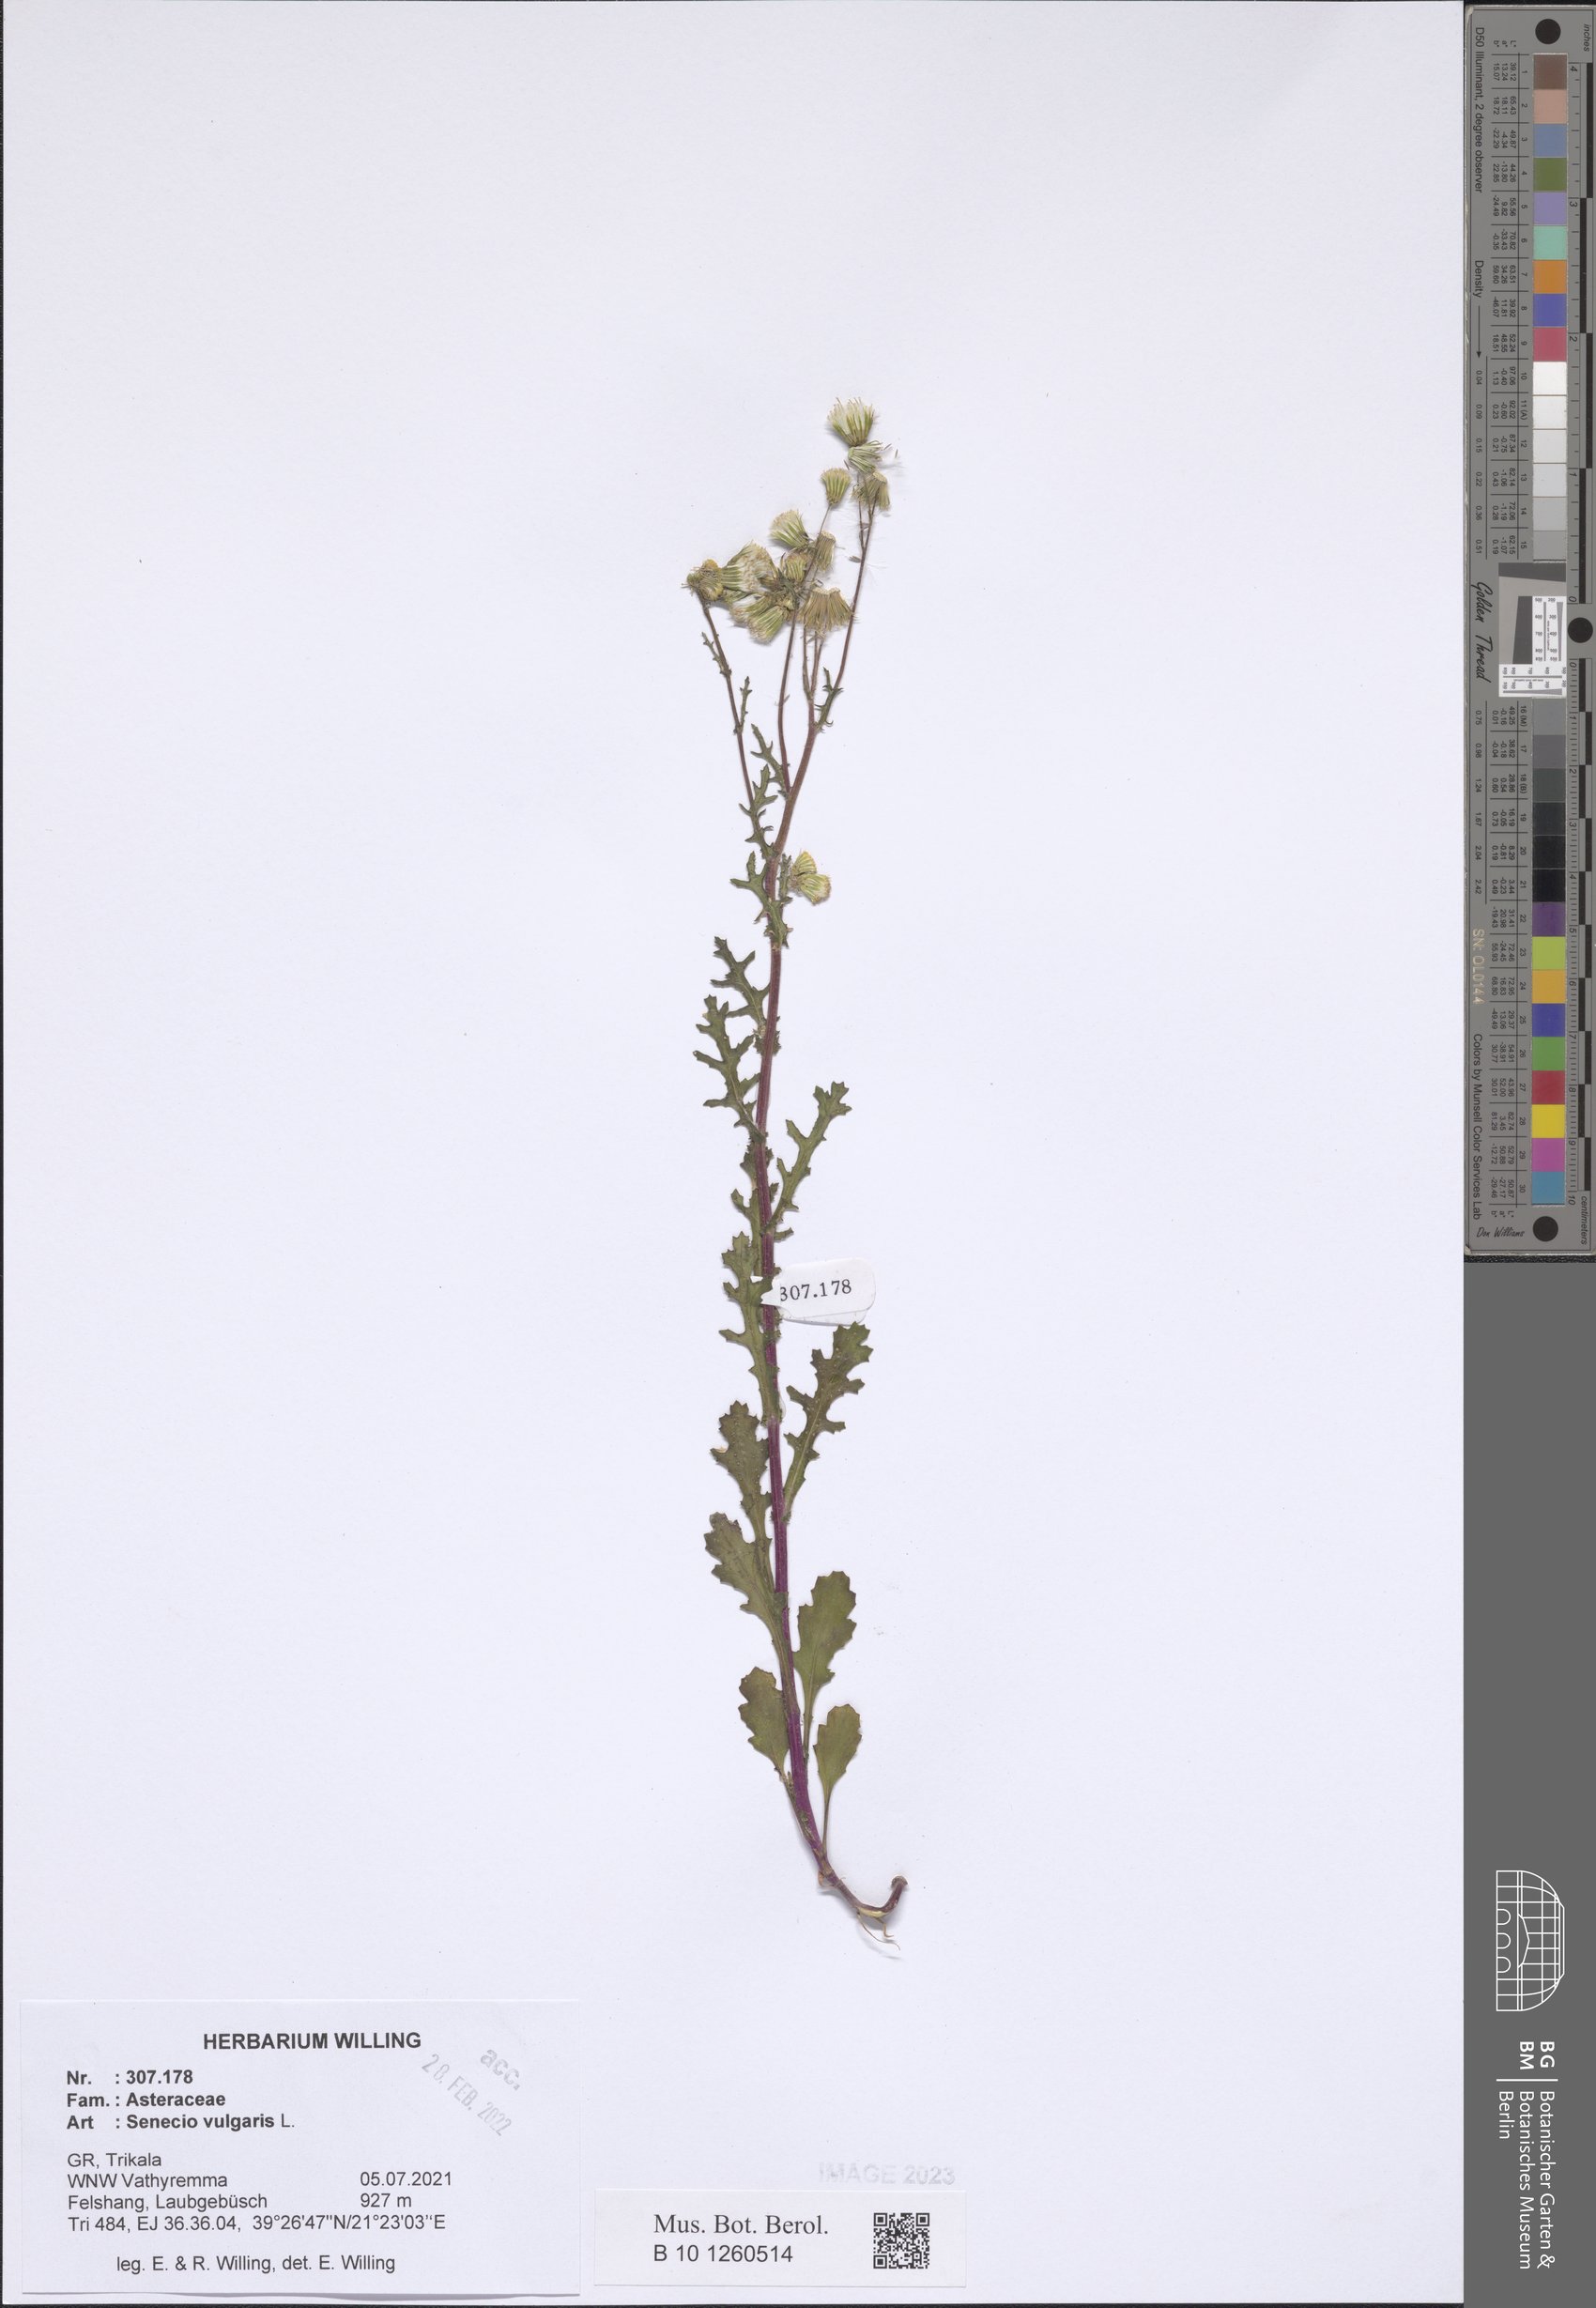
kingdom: Plantae
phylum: Tracheophyta
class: Magnoliopsida
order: Asterales
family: Asteraceae
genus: Senecio
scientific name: Senecio vulgaris
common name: Old-man-in-the-spring
